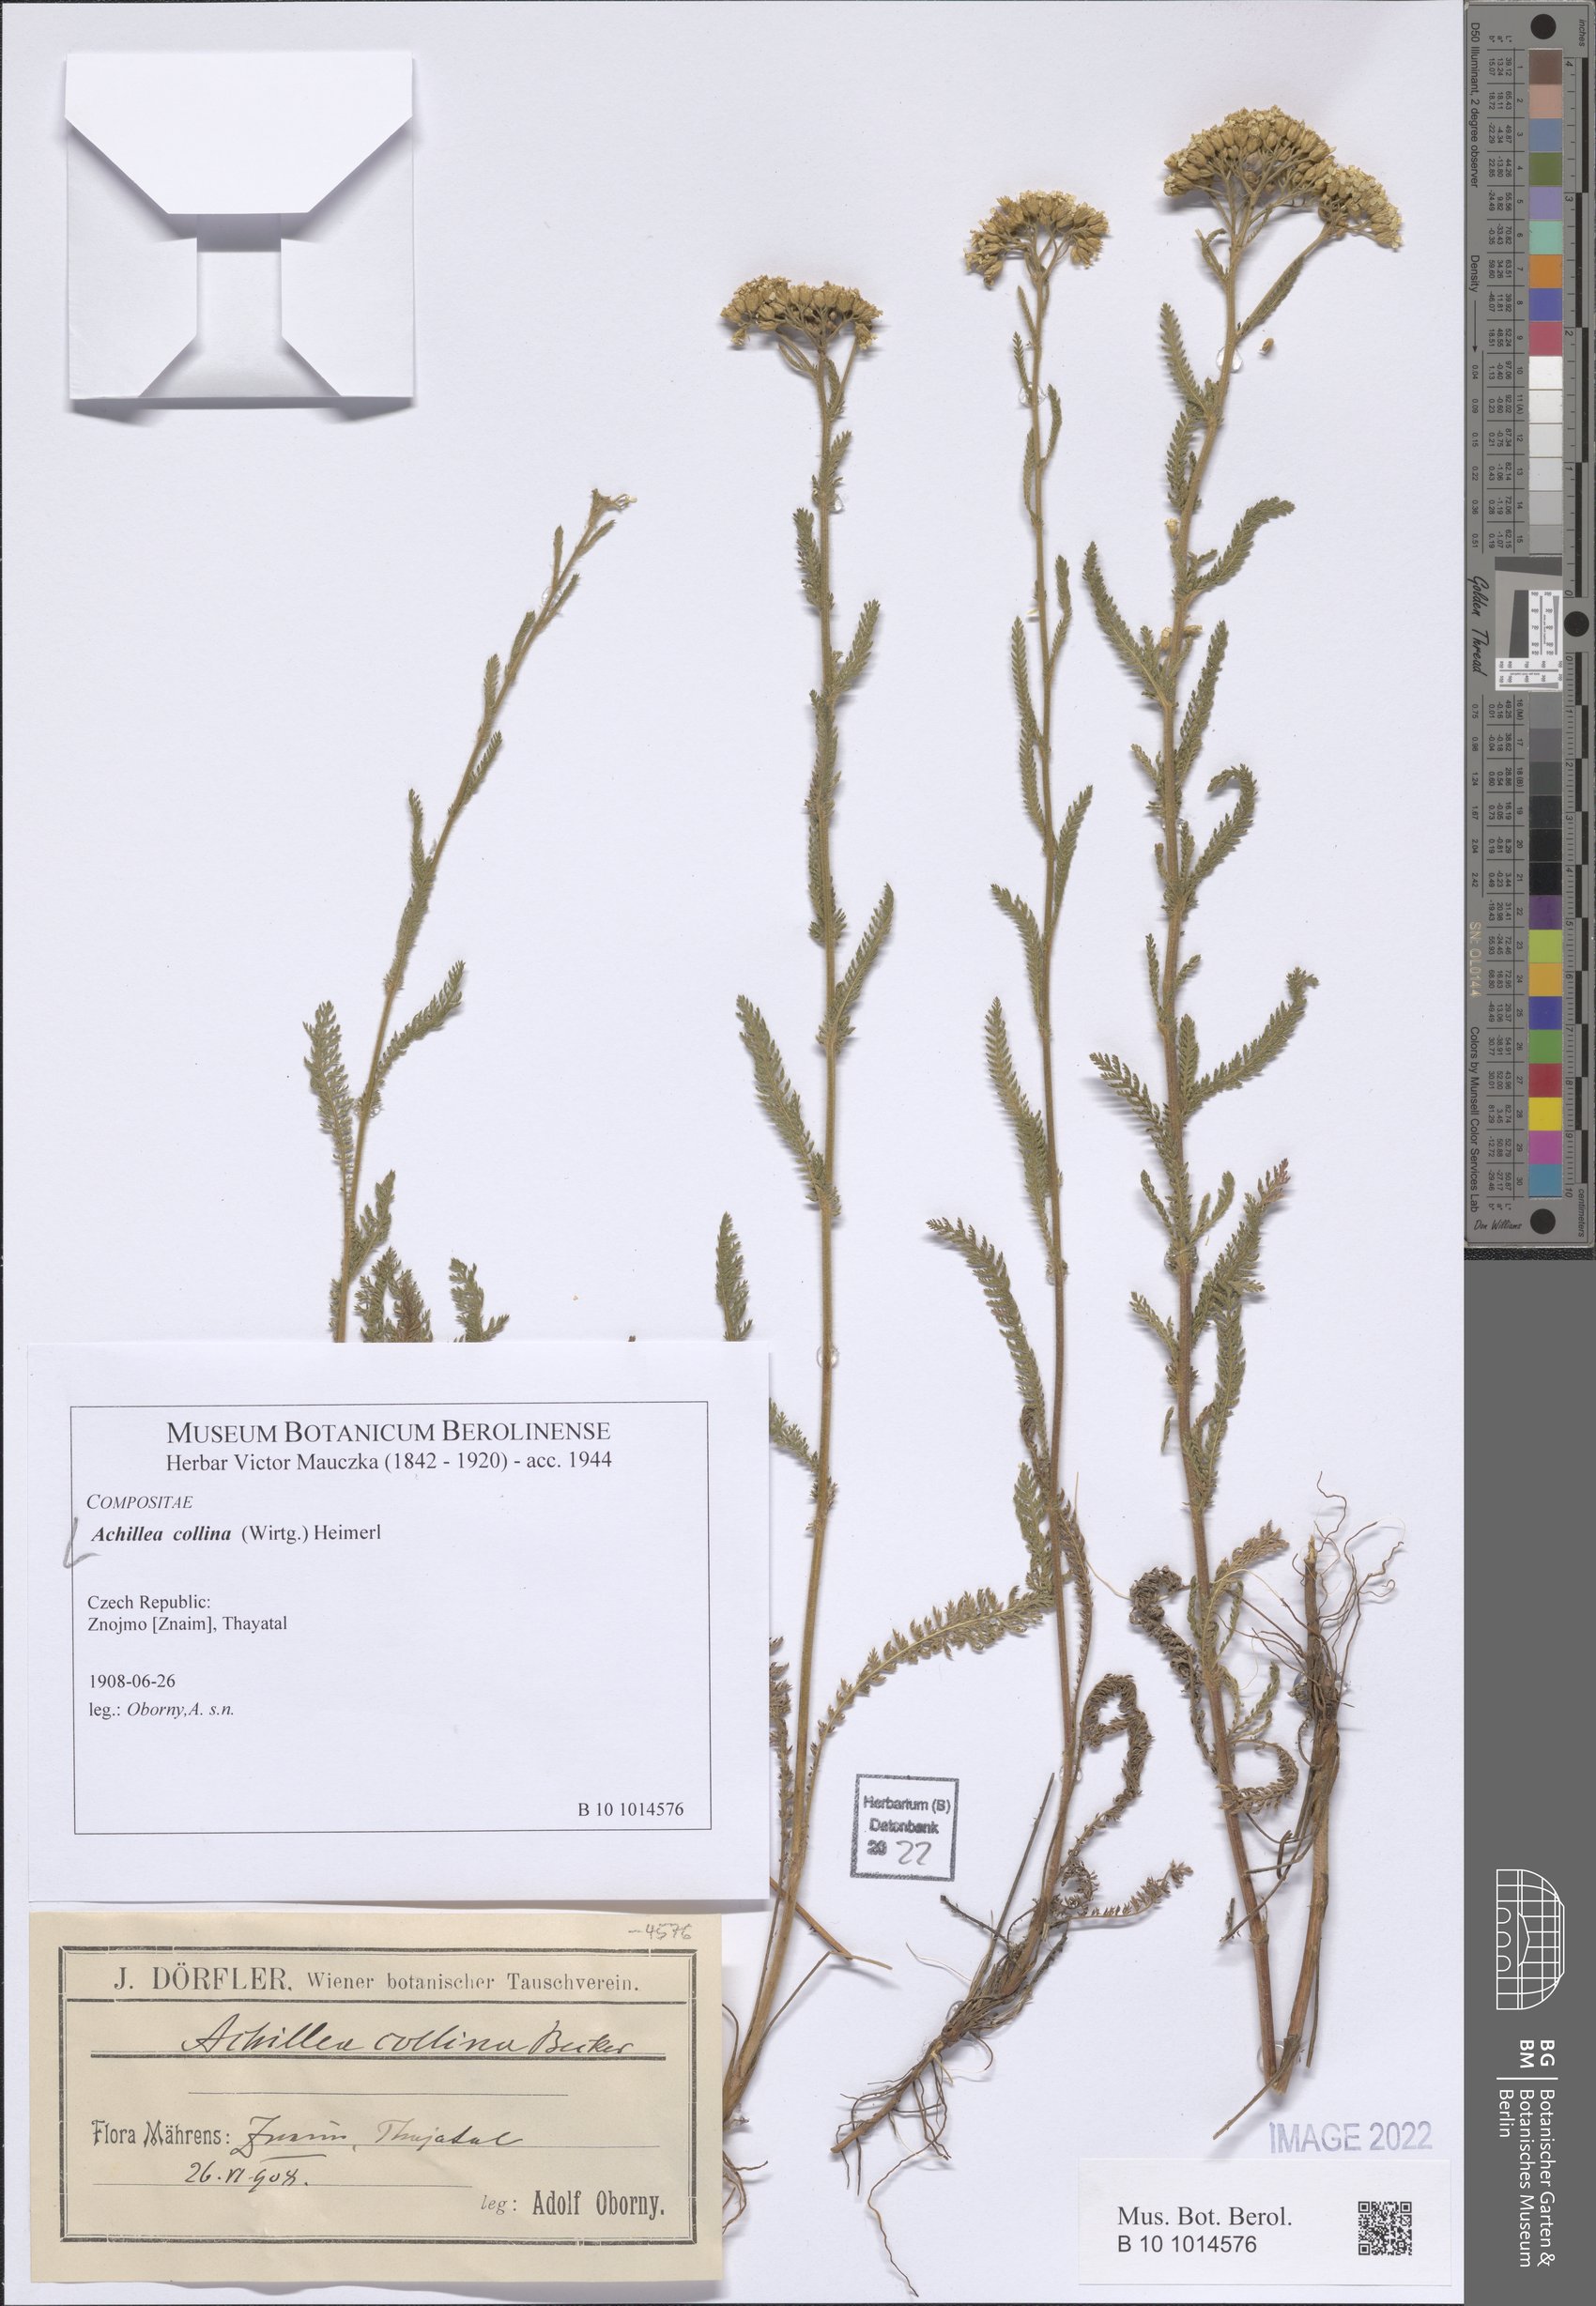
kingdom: Plantae
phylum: Tracheophyta
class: Magnoliopsida
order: Asterales
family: Asteraceae
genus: Achillea
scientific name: Achillea collina
